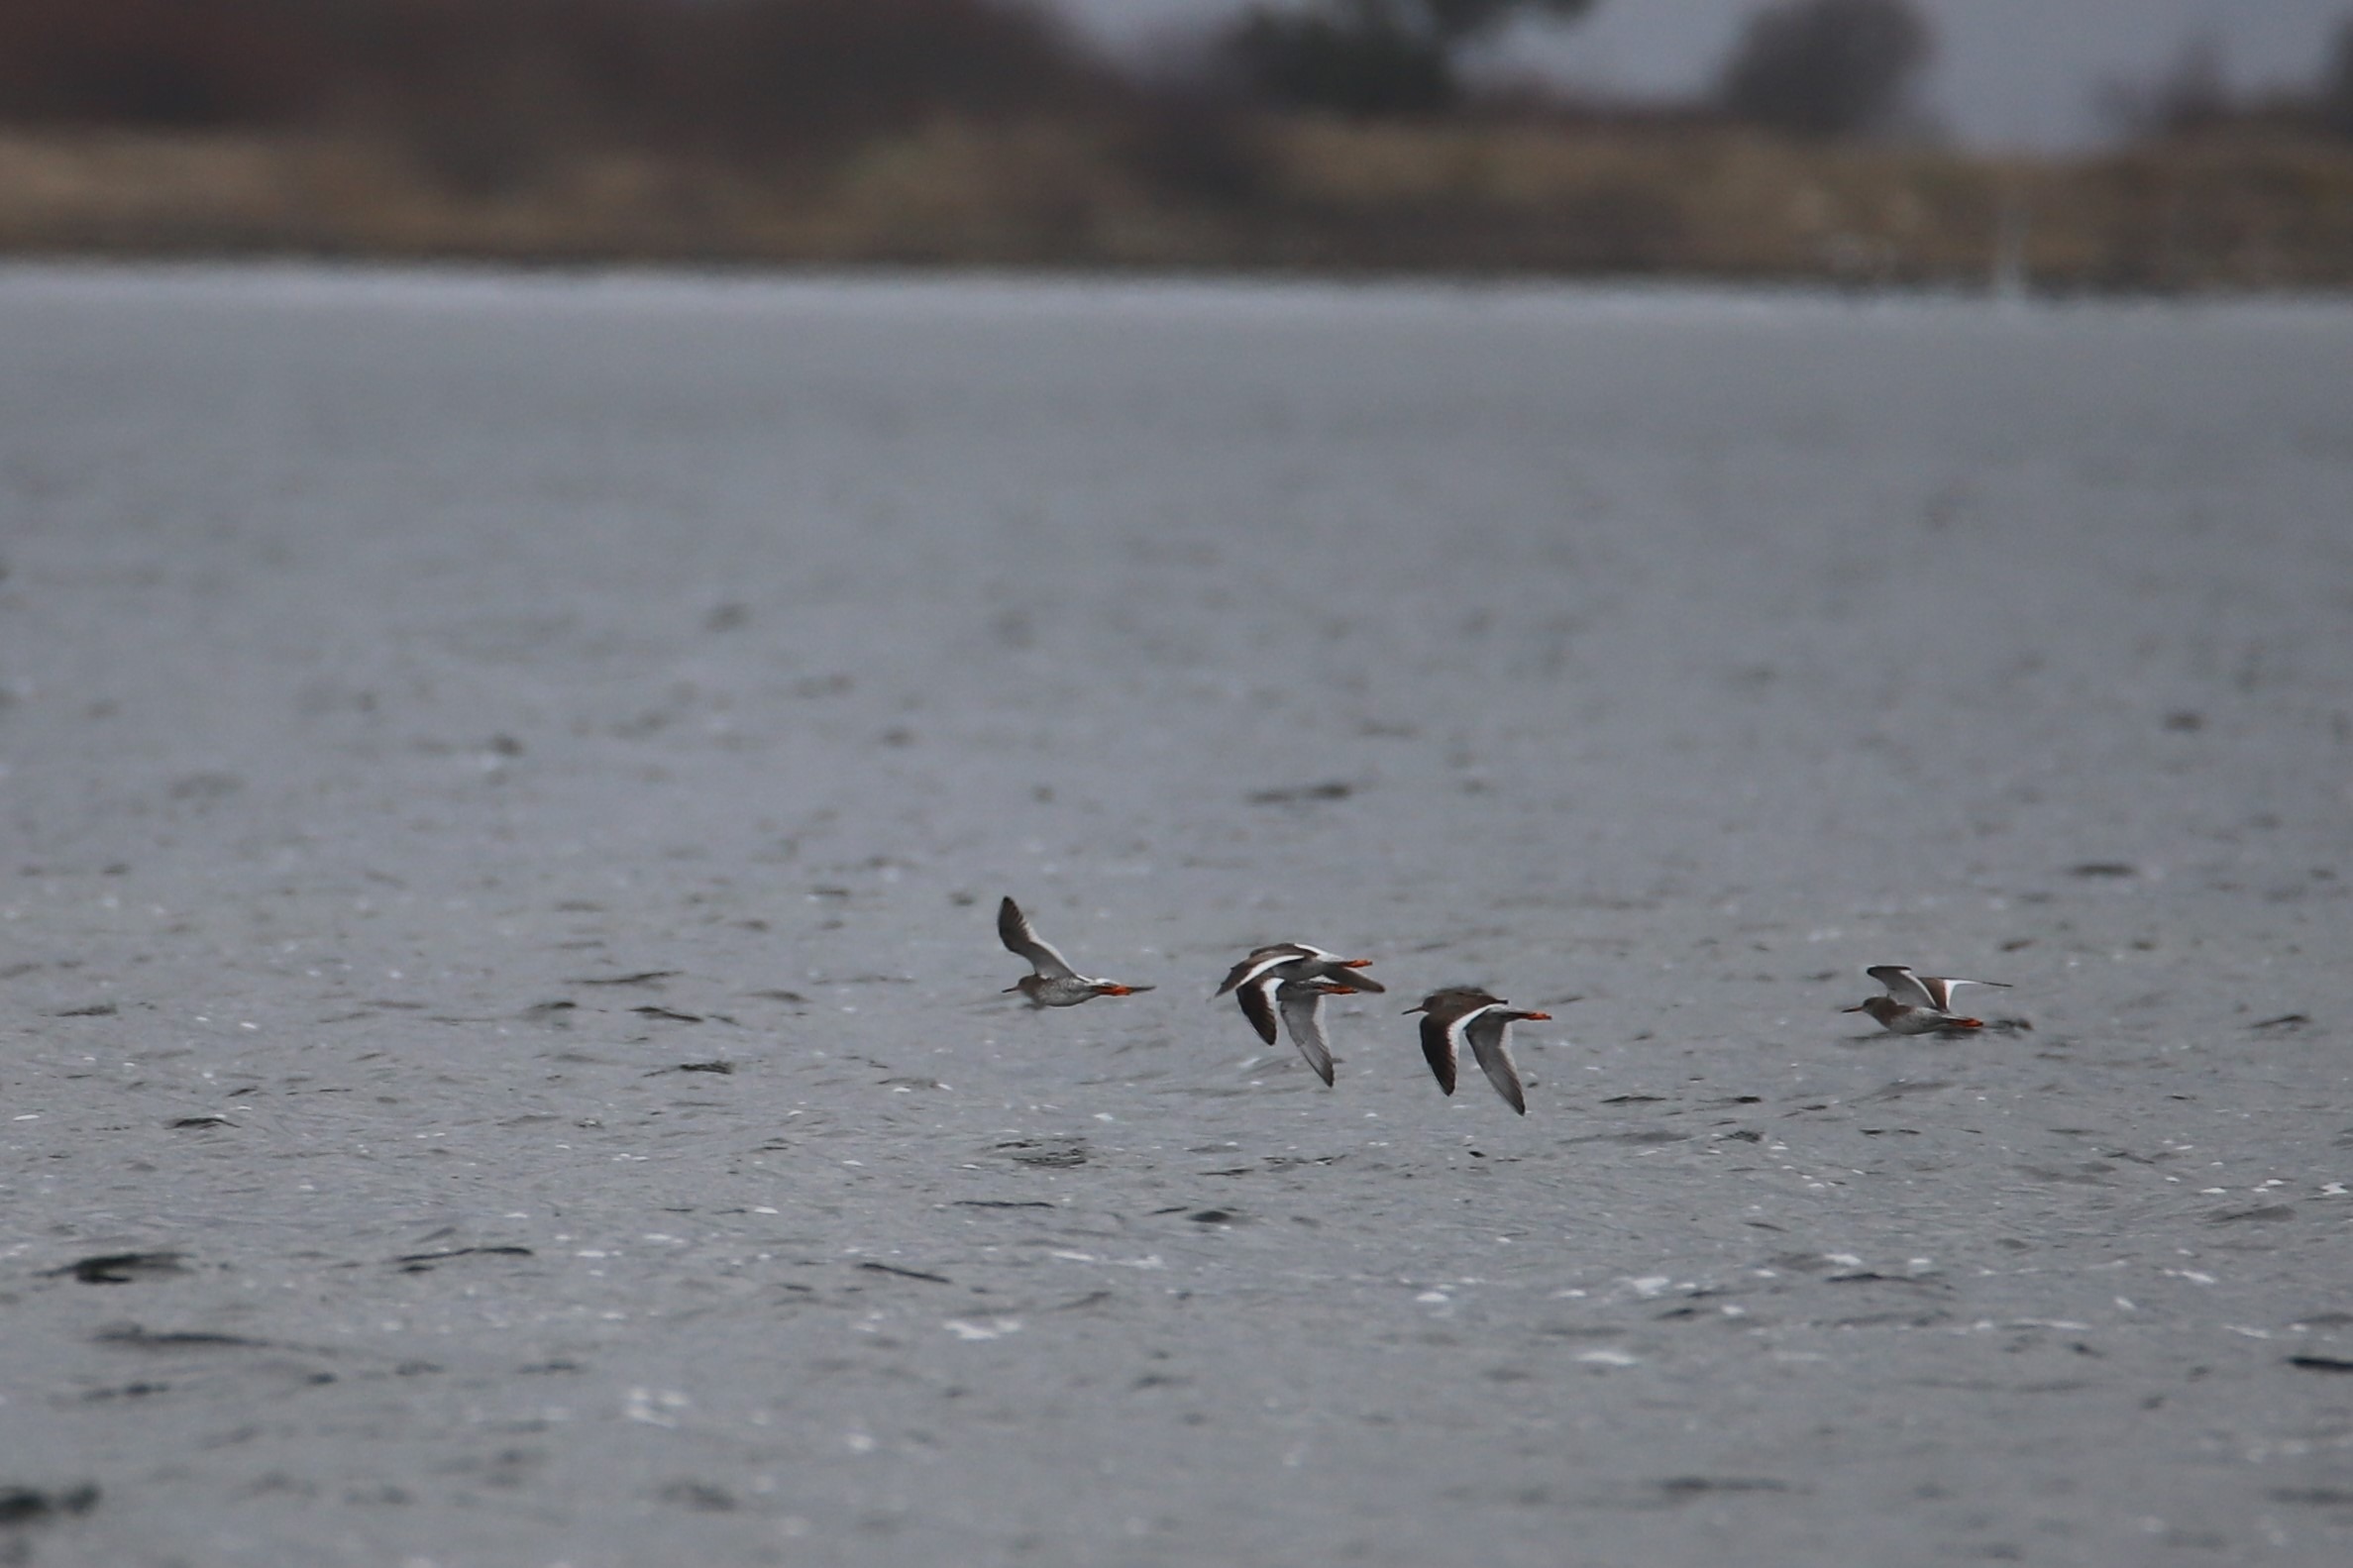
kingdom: Animalia
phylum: Chordata
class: Aves
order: Charadriiformes
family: Scolopacidae
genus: Tringa
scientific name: Tringa totanus
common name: Rødben
